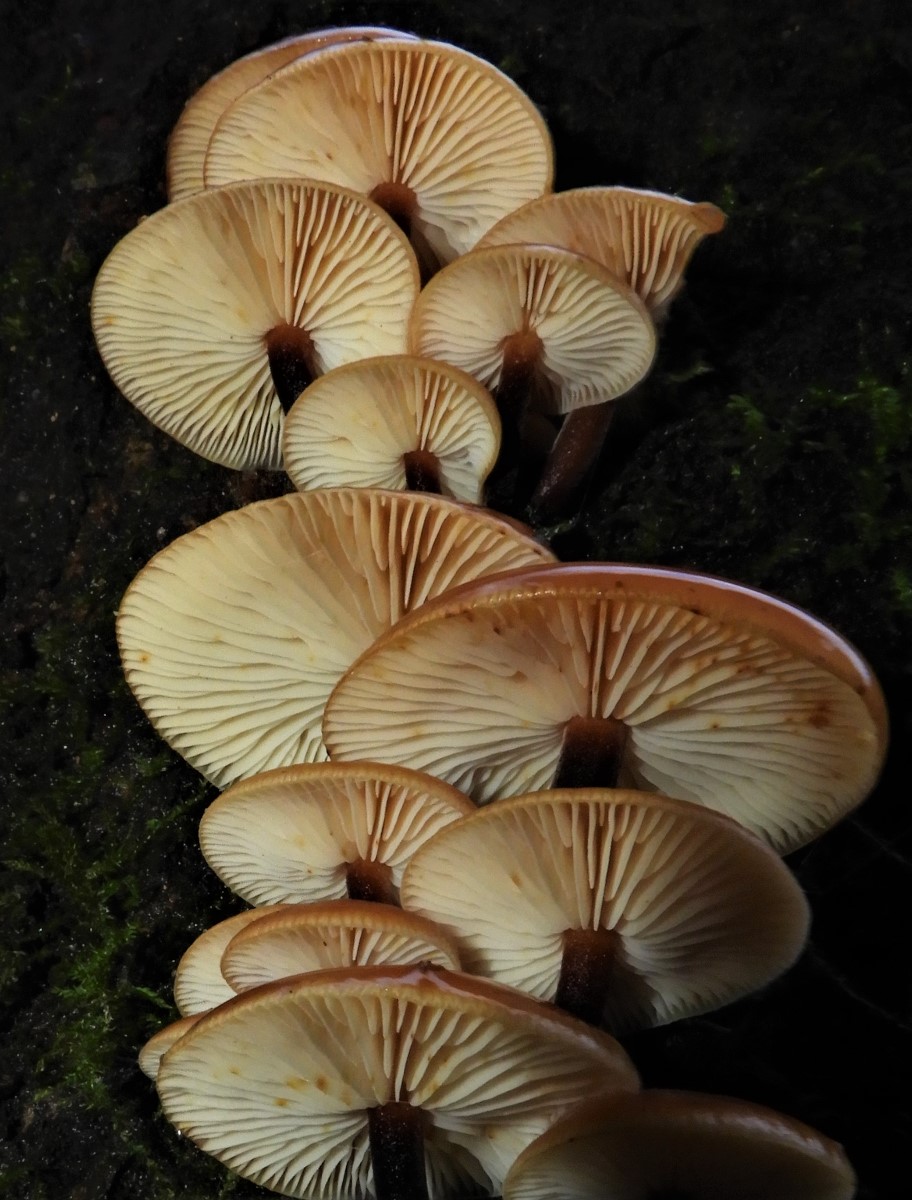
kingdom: Fungi
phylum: Basidiomycota
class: Agaricomycetes
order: Agaricales
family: Physalacriaceae
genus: Flammulina
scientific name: Flammulina velutipes
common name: gul fløjlsfod
